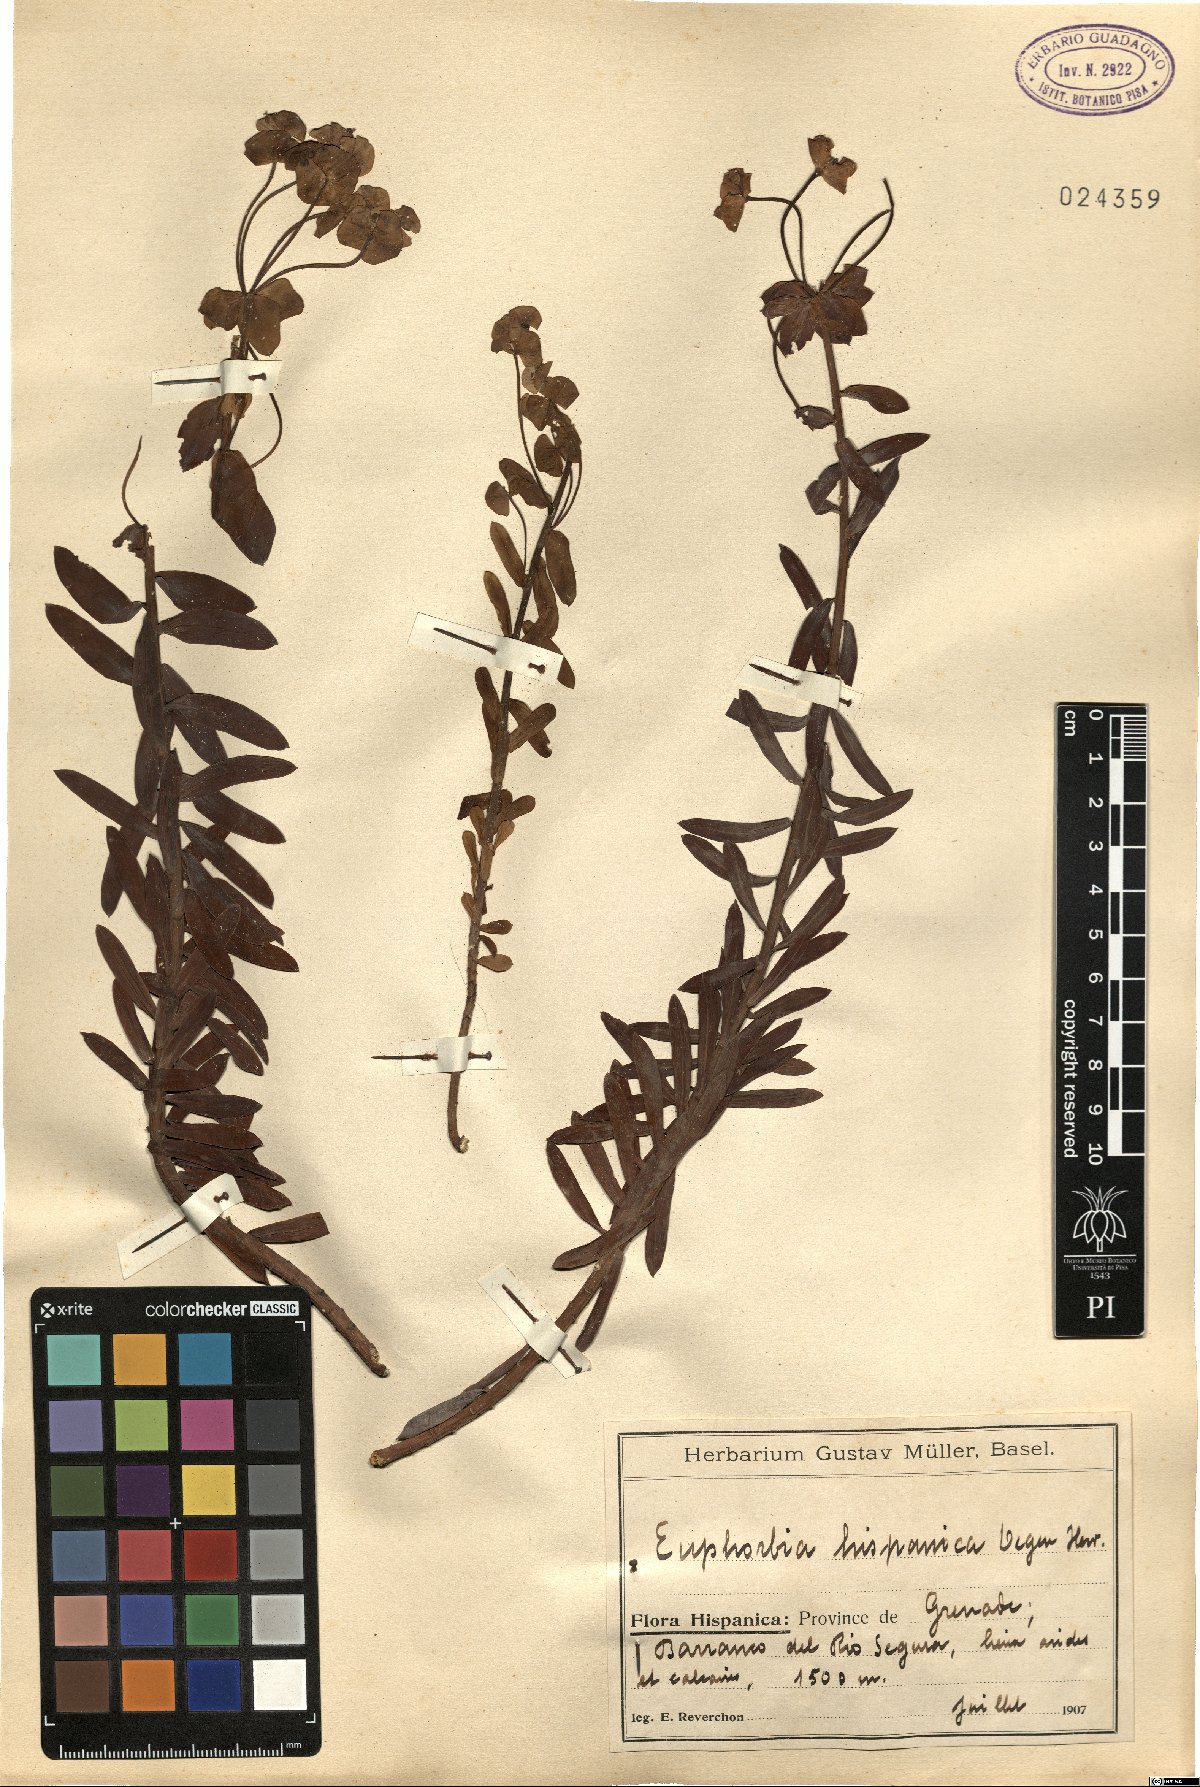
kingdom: Plantae
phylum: Tracheophyta
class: Magnoliopsida
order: Malpighiales
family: Euphorbiaceae
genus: Euphorbia
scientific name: Euphorbia franchetii
